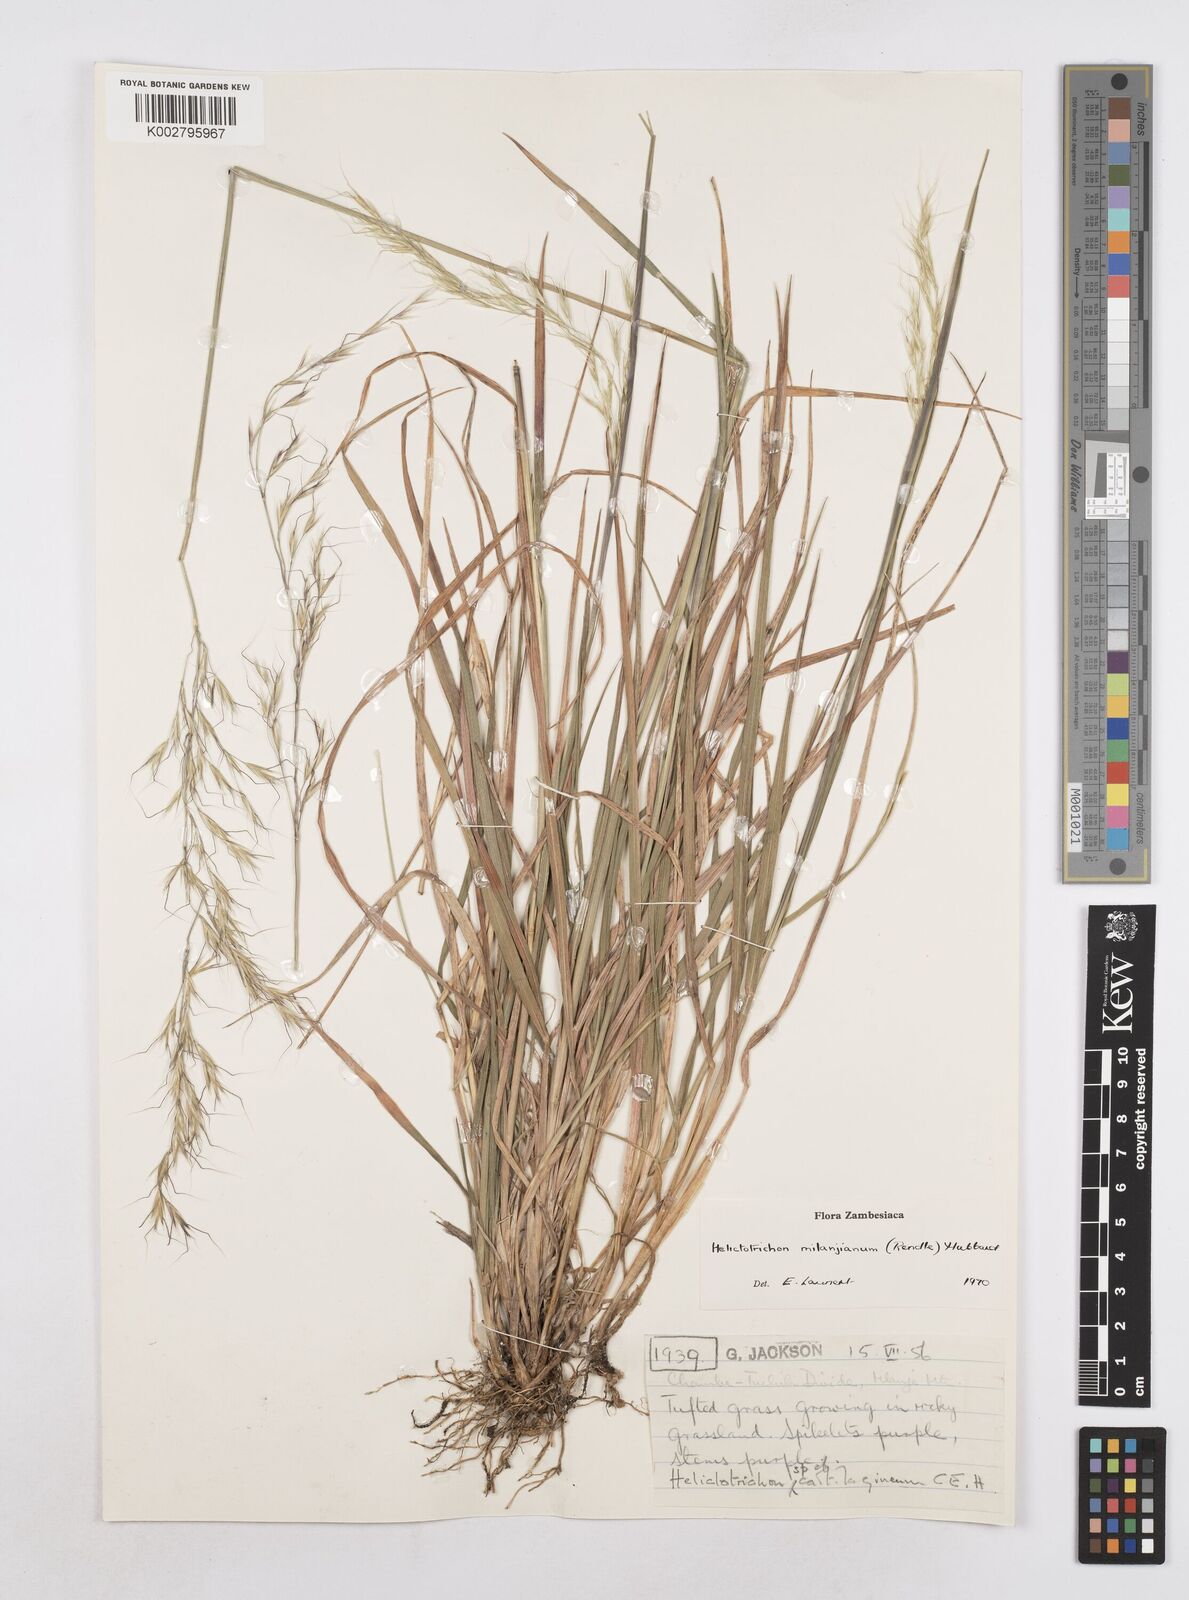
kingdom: Plantae
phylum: Tracheophyta
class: Liliopsida
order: Poales
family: Poaceae
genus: Trisetopsis
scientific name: Trisetopsis milanjiana
